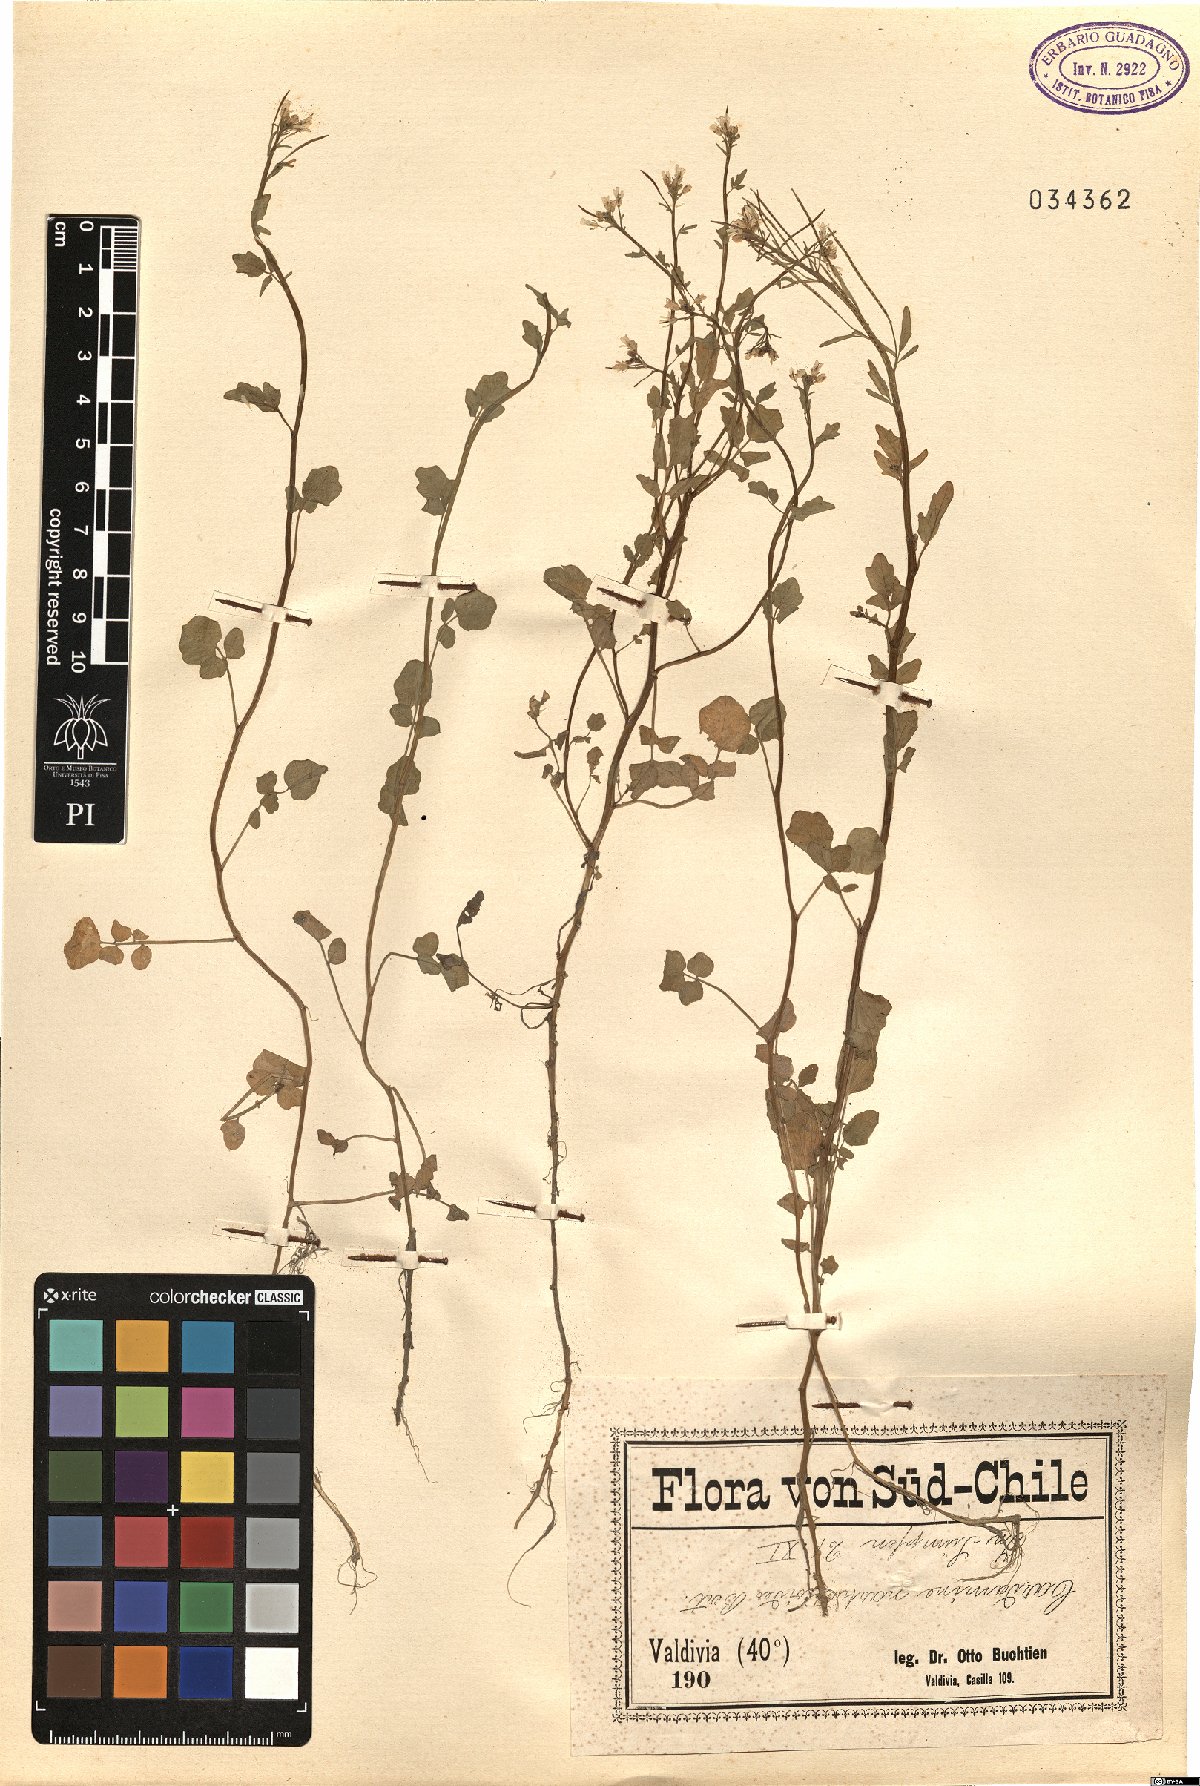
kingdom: Plantae
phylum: Tracheophyta
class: Magnoliopsida
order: Brassicales
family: Brassicaceae
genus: Cardamine
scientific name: Cardamine pratensis
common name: Cuckoo flower
